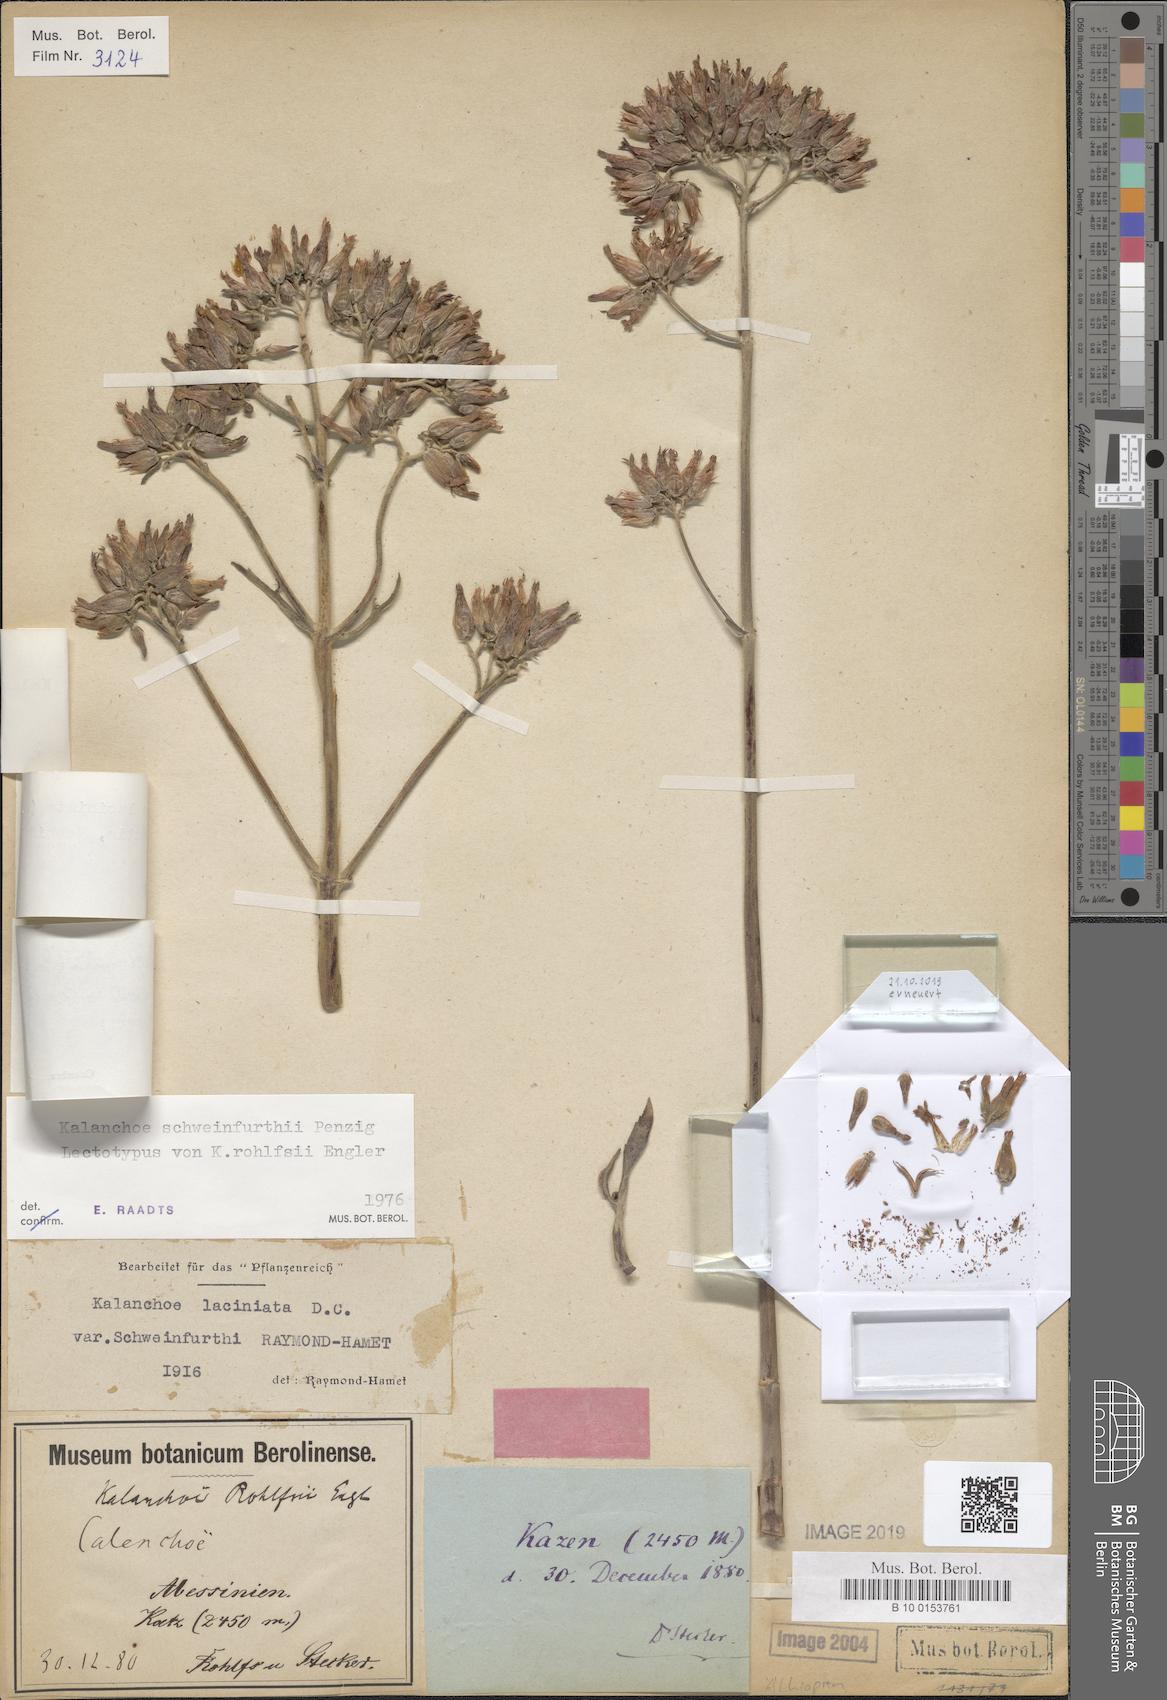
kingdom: Plantae
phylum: Tracheophyta
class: Magnoliopsida
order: Saxifragales
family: Crassulaceae
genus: Kalanchoe
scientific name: Kalanchoe laciniata
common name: Christmastree plant
